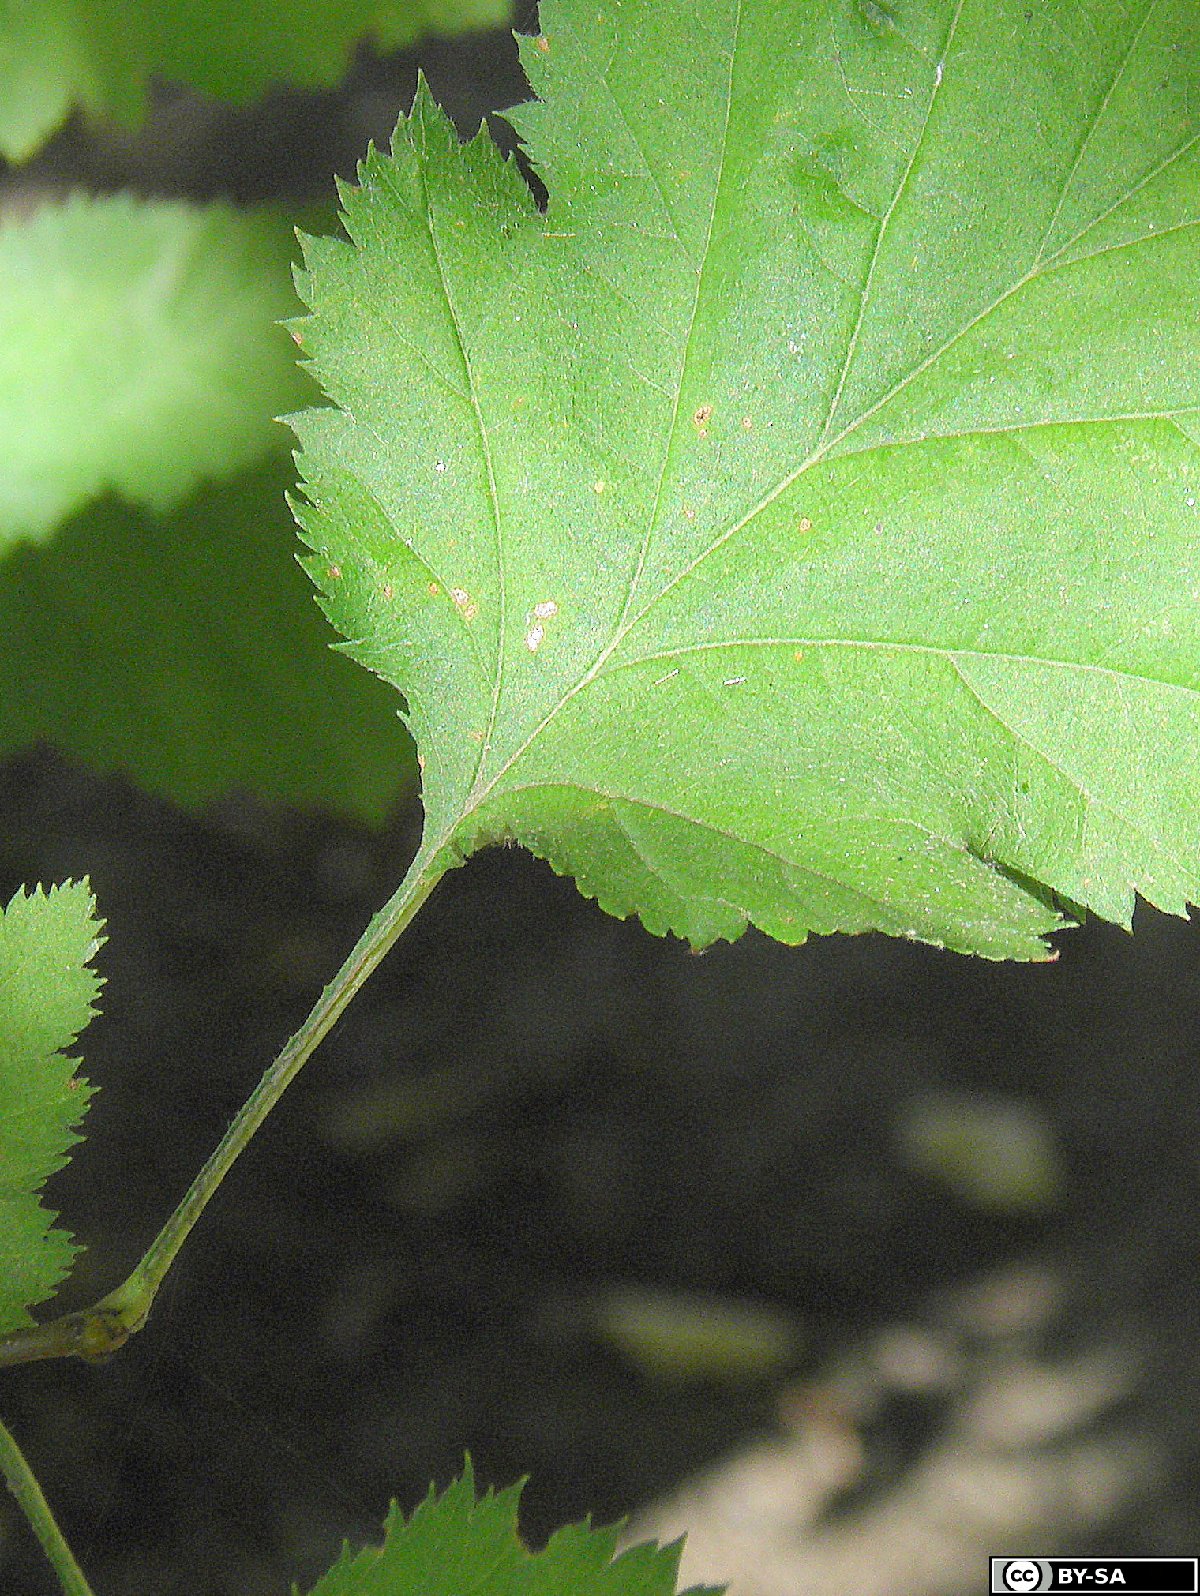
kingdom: Plantae
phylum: Tracheophyta
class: Magnoliopsida
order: Rosales
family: Rosaceae
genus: Crataegus
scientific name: Crataegus coccinea
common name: Scarlet hawthorn
